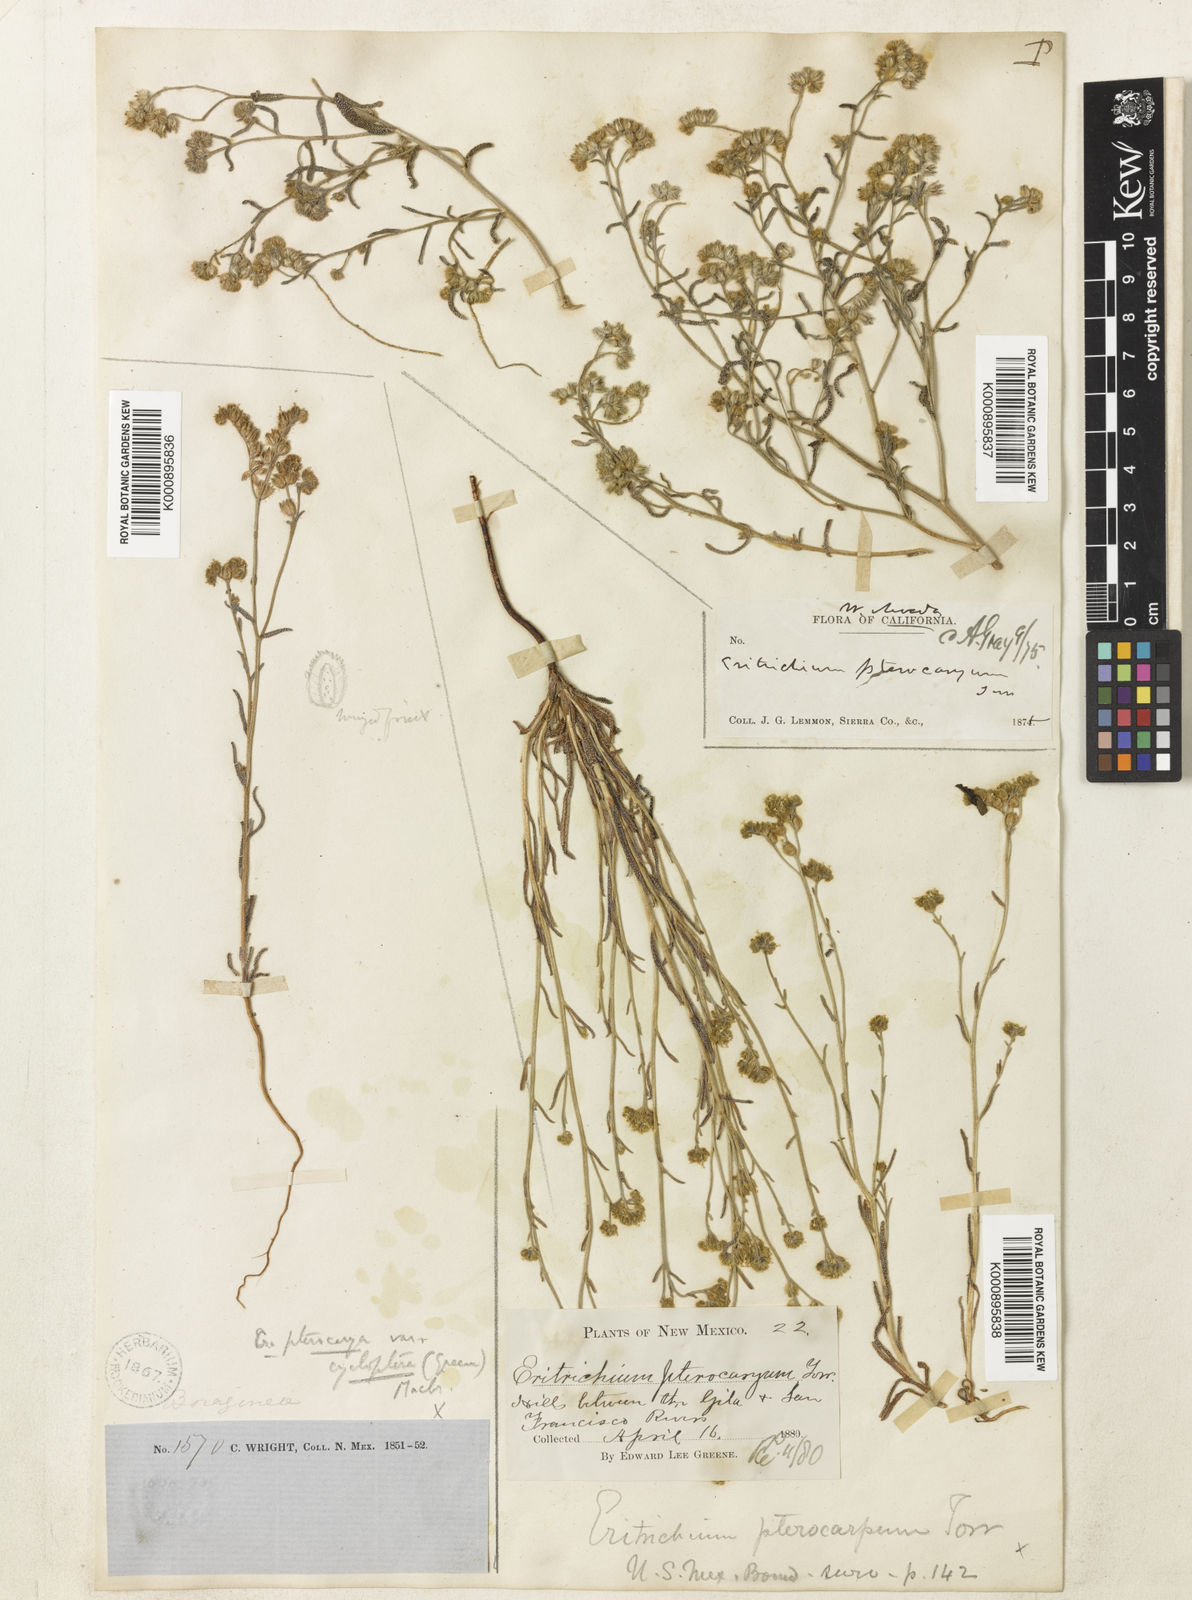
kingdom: Plantae
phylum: Tracheophyta
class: Magnoliopsida
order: Boraginales
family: Boraginaceae
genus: Cryptantha
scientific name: Cryptantha pterocarya
